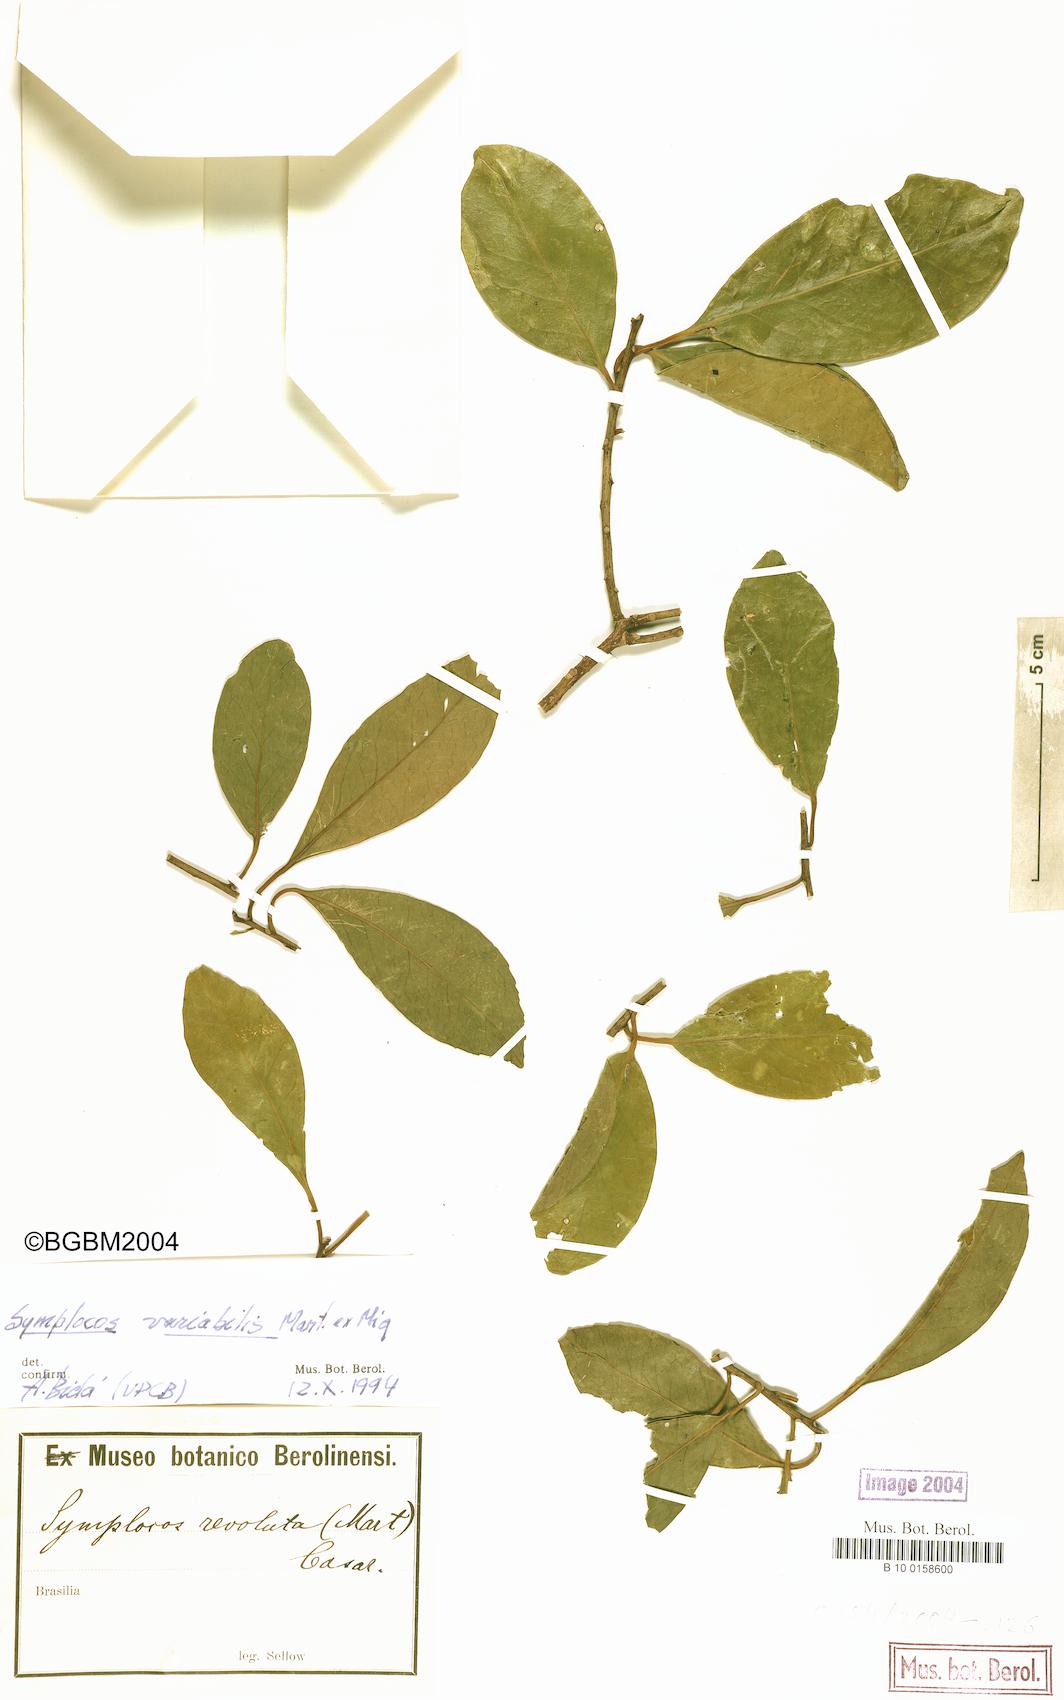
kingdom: Plantae
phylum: Tracheophyta
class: Magnoliopsida
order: Ericales
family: Symplocaceae
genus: Symplocos
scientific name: Symplocos revoluta
